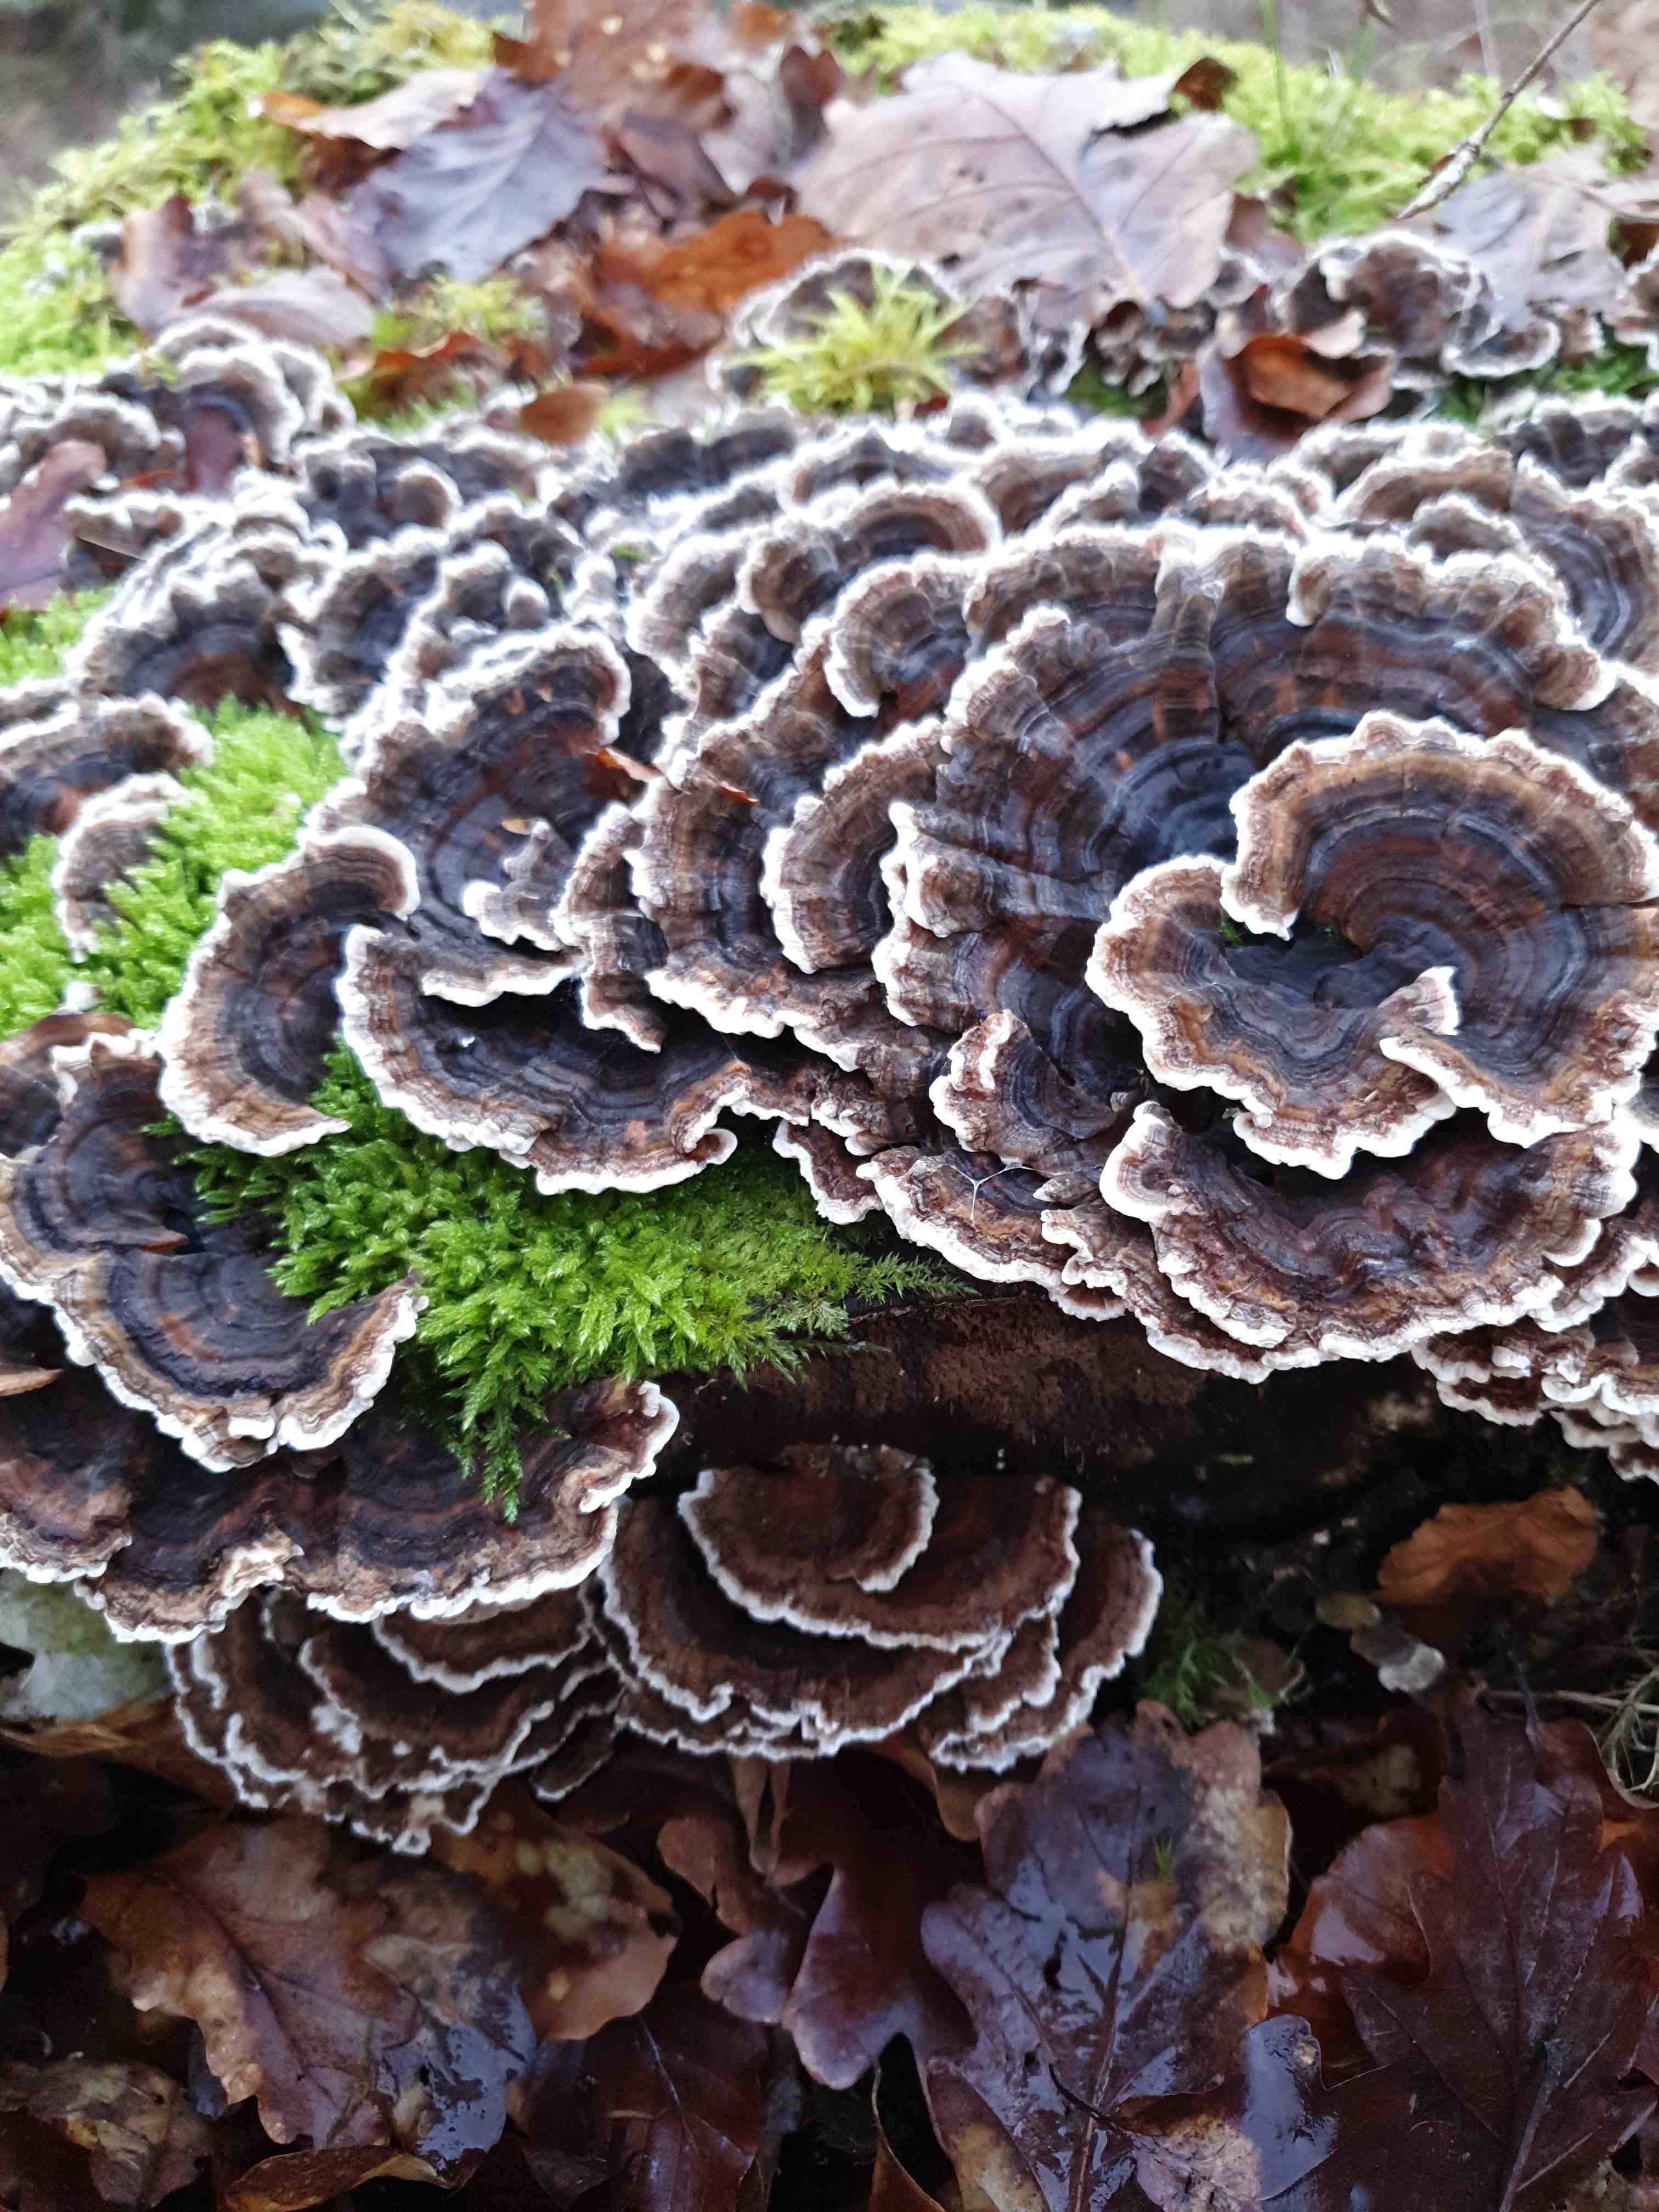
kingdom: Fungi
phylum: Basidiomycota
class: Agaricomycetes
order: Polyporales
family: Polyporaceae
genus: Trametes
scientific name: Trametes versicolor
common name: broget læderporesvamp
